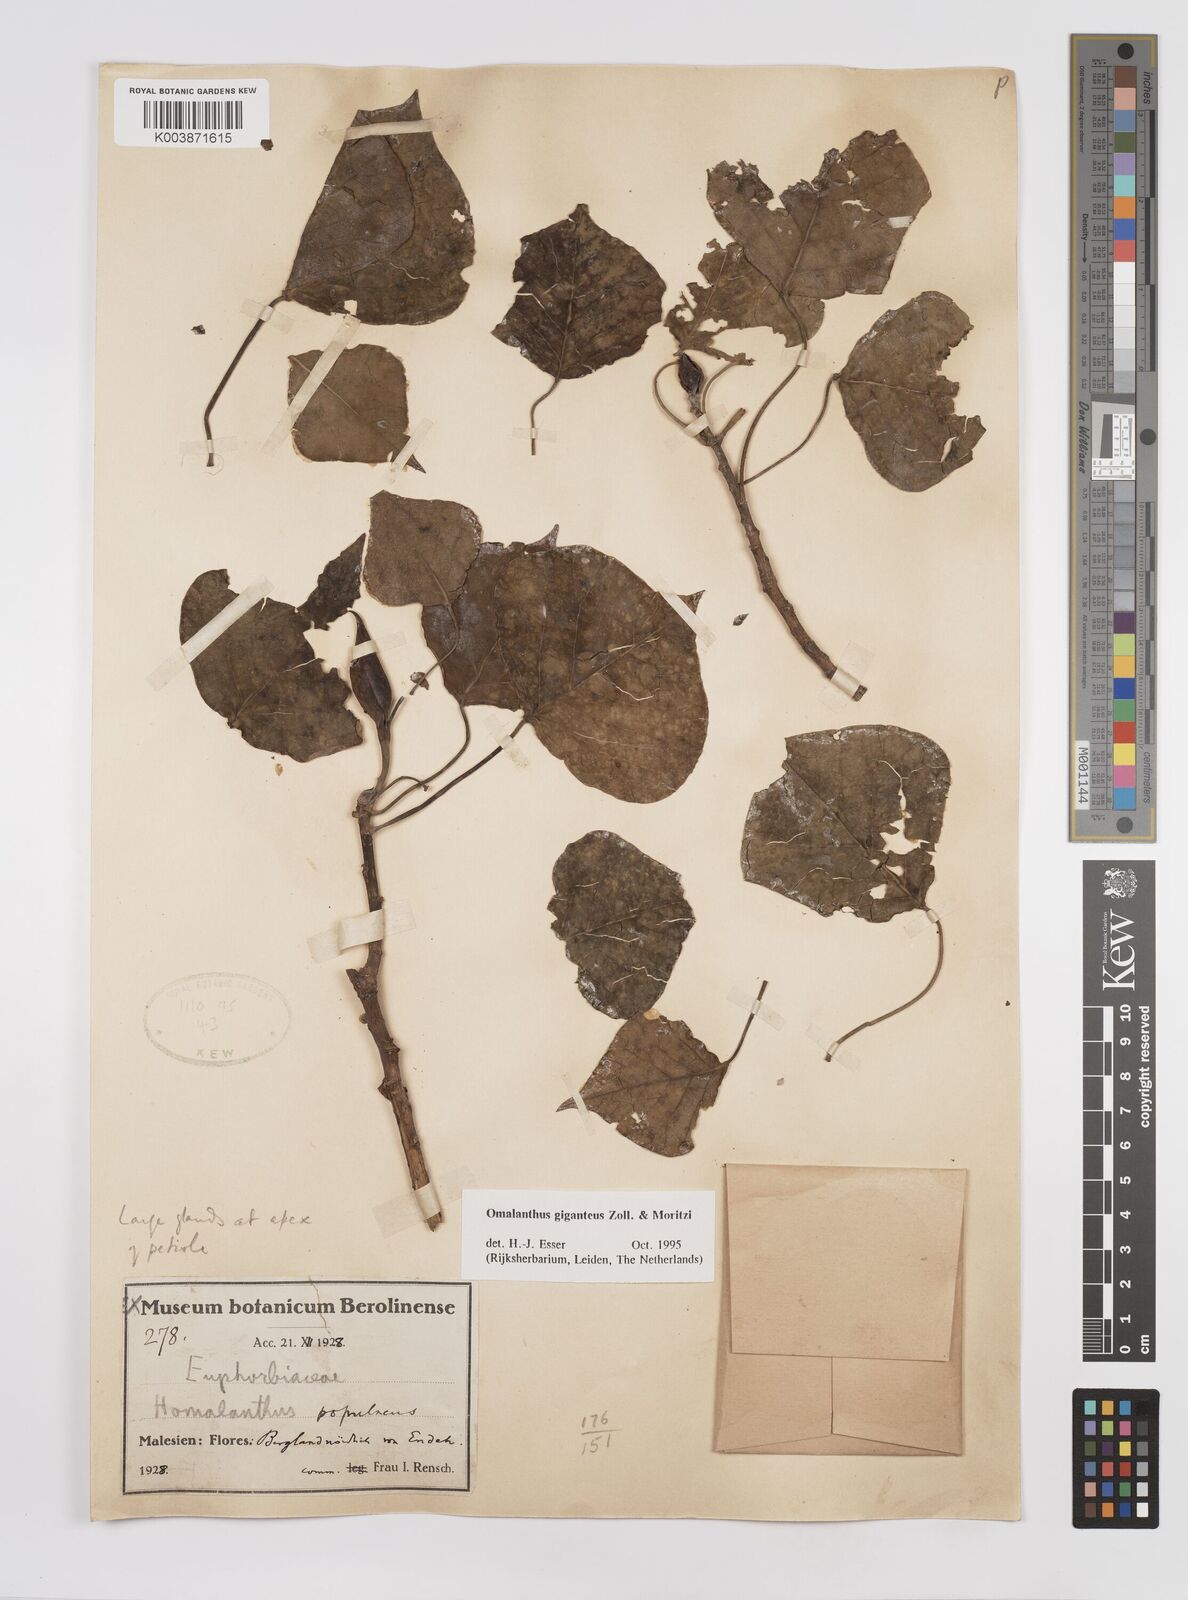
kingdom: Plantae
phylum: Tracheophyta
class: Magnoliopsida
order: Malpighiales
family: Euphorbiaceae
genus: Homalanthus
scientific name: Homalanthus giganteus
